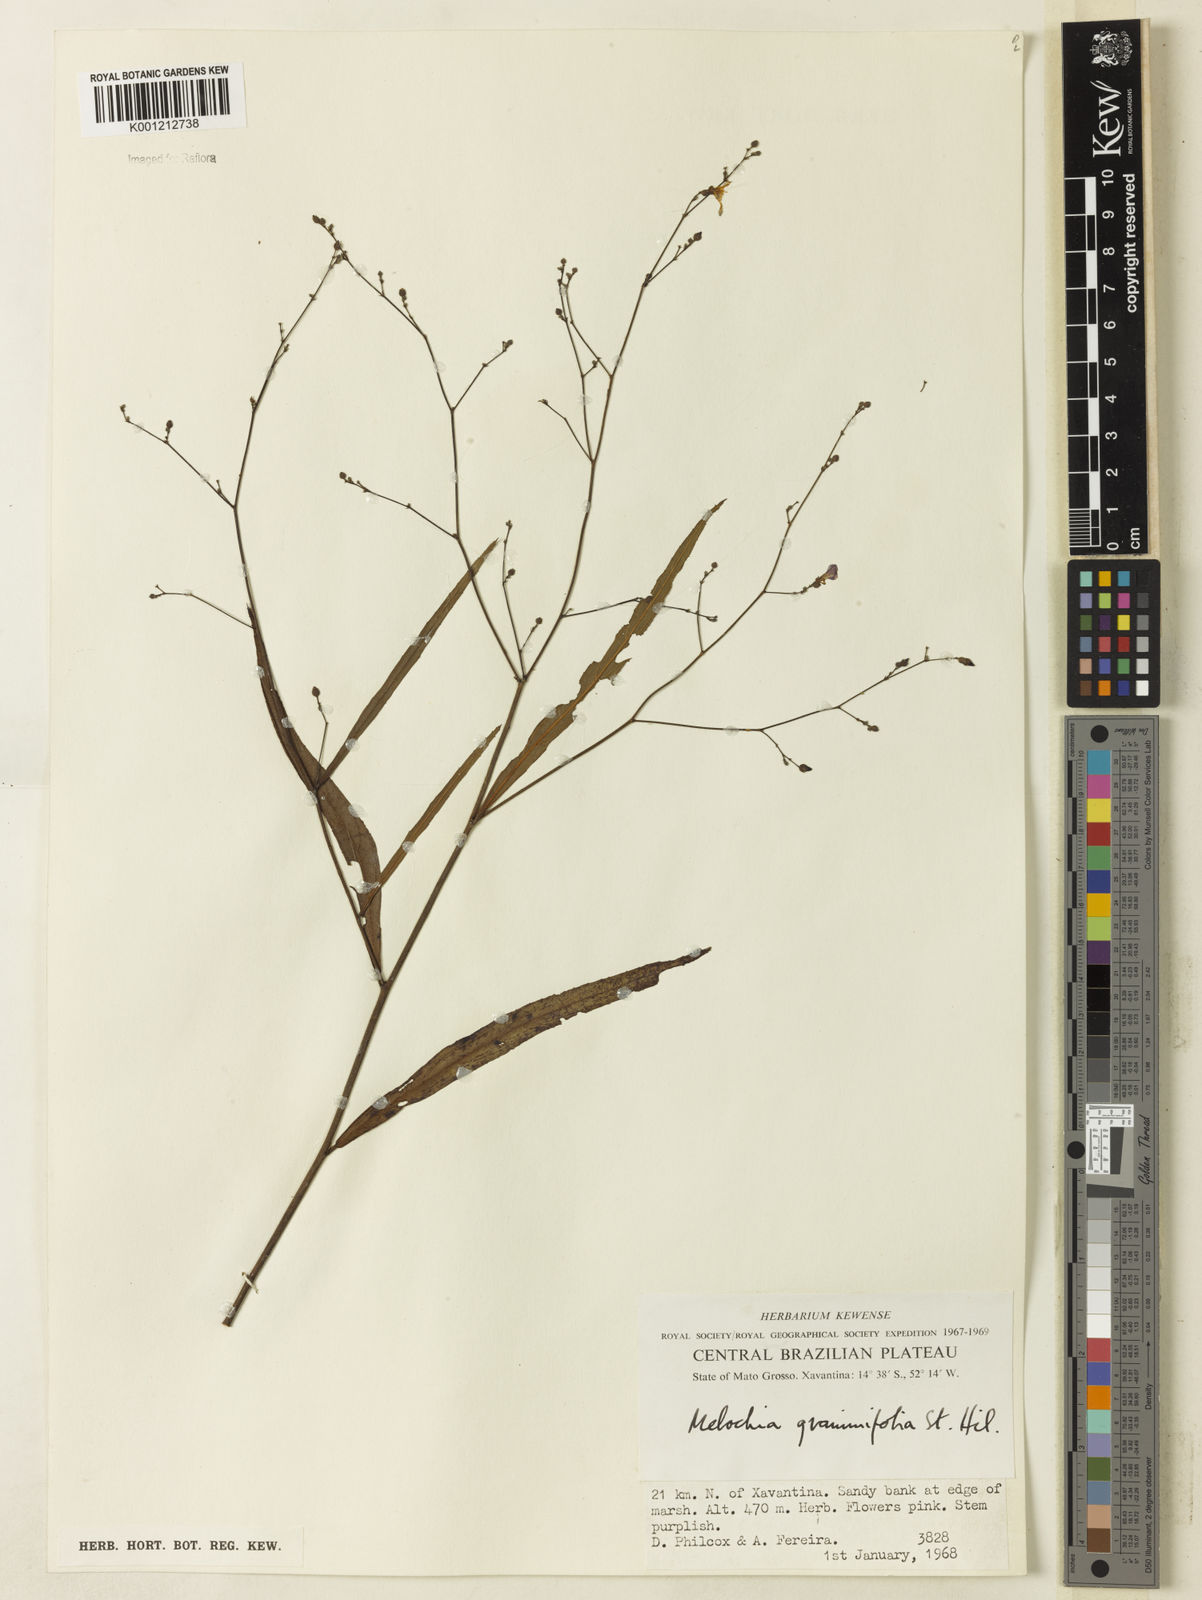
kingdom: Plantae
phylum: Tracheophyta
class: Magnoliopsida
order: Malvales
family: Malvaceae
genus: Melochia
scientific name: Melochia graminifolia
